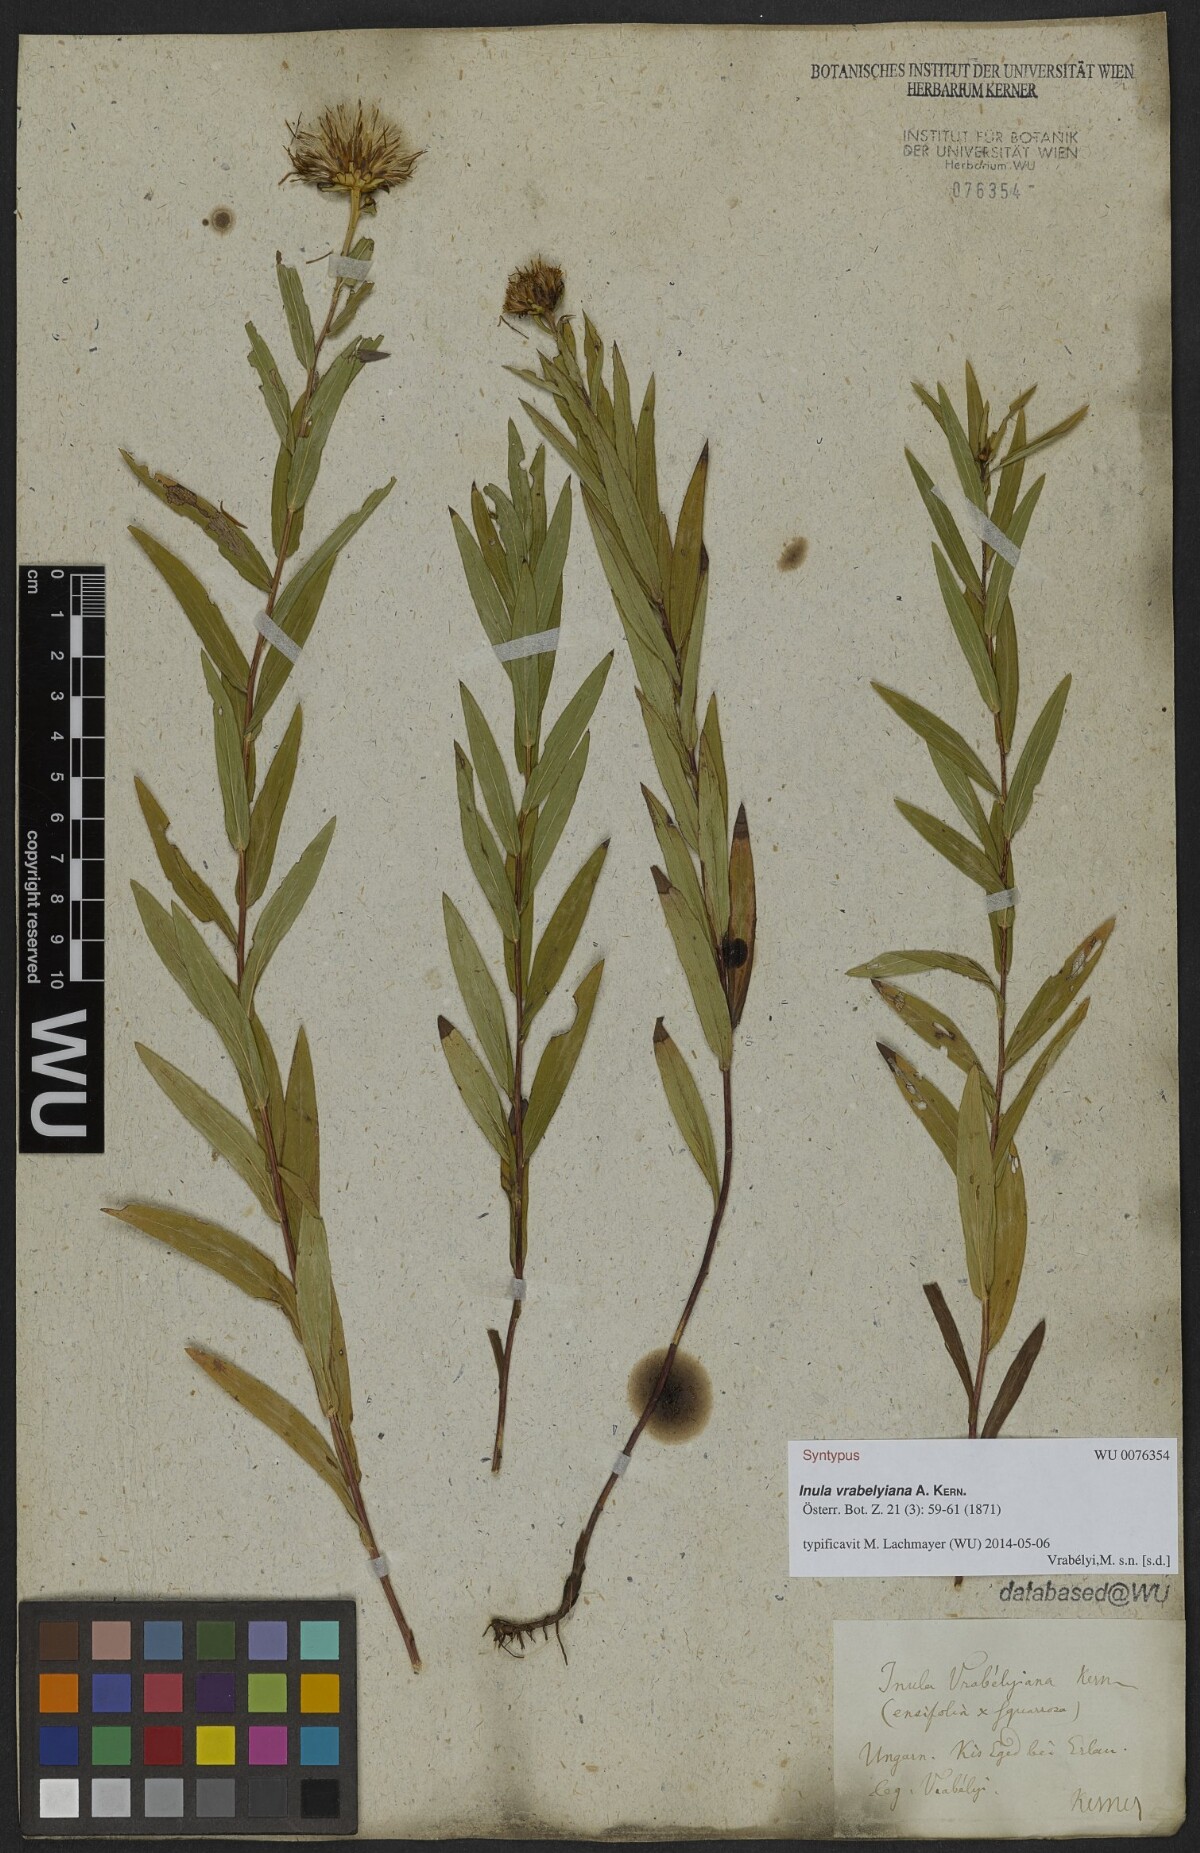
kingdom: Plantae
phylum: Tracheophyta
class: Magnoliopsida
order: Asterales
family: Asteraceae
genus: Pentanema
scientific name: Pentanema strictum
